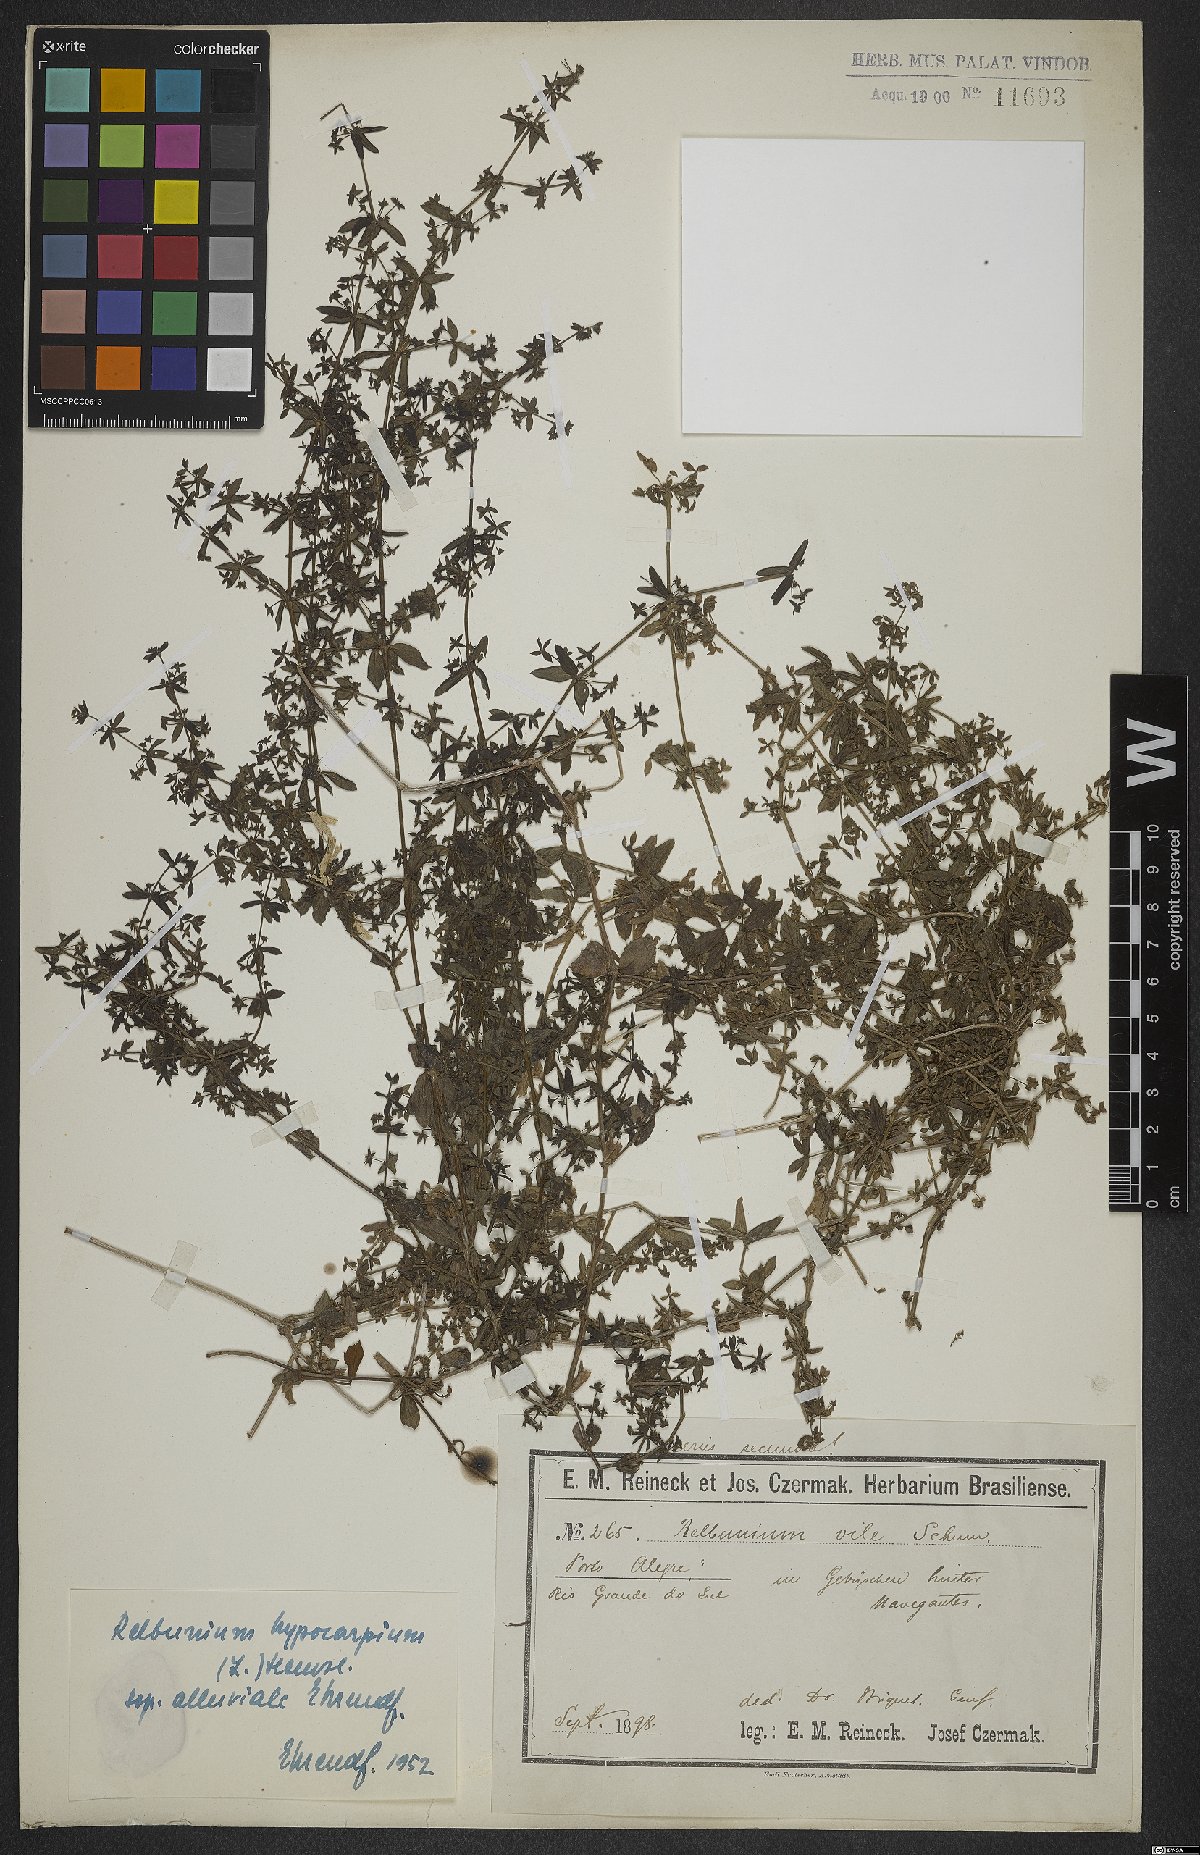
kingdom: Plantae
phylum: Tracheophyta
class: Magnoliopsida
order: Gentianales
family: Rubiaceae
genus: Galium
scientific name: Galium hypocarpium
